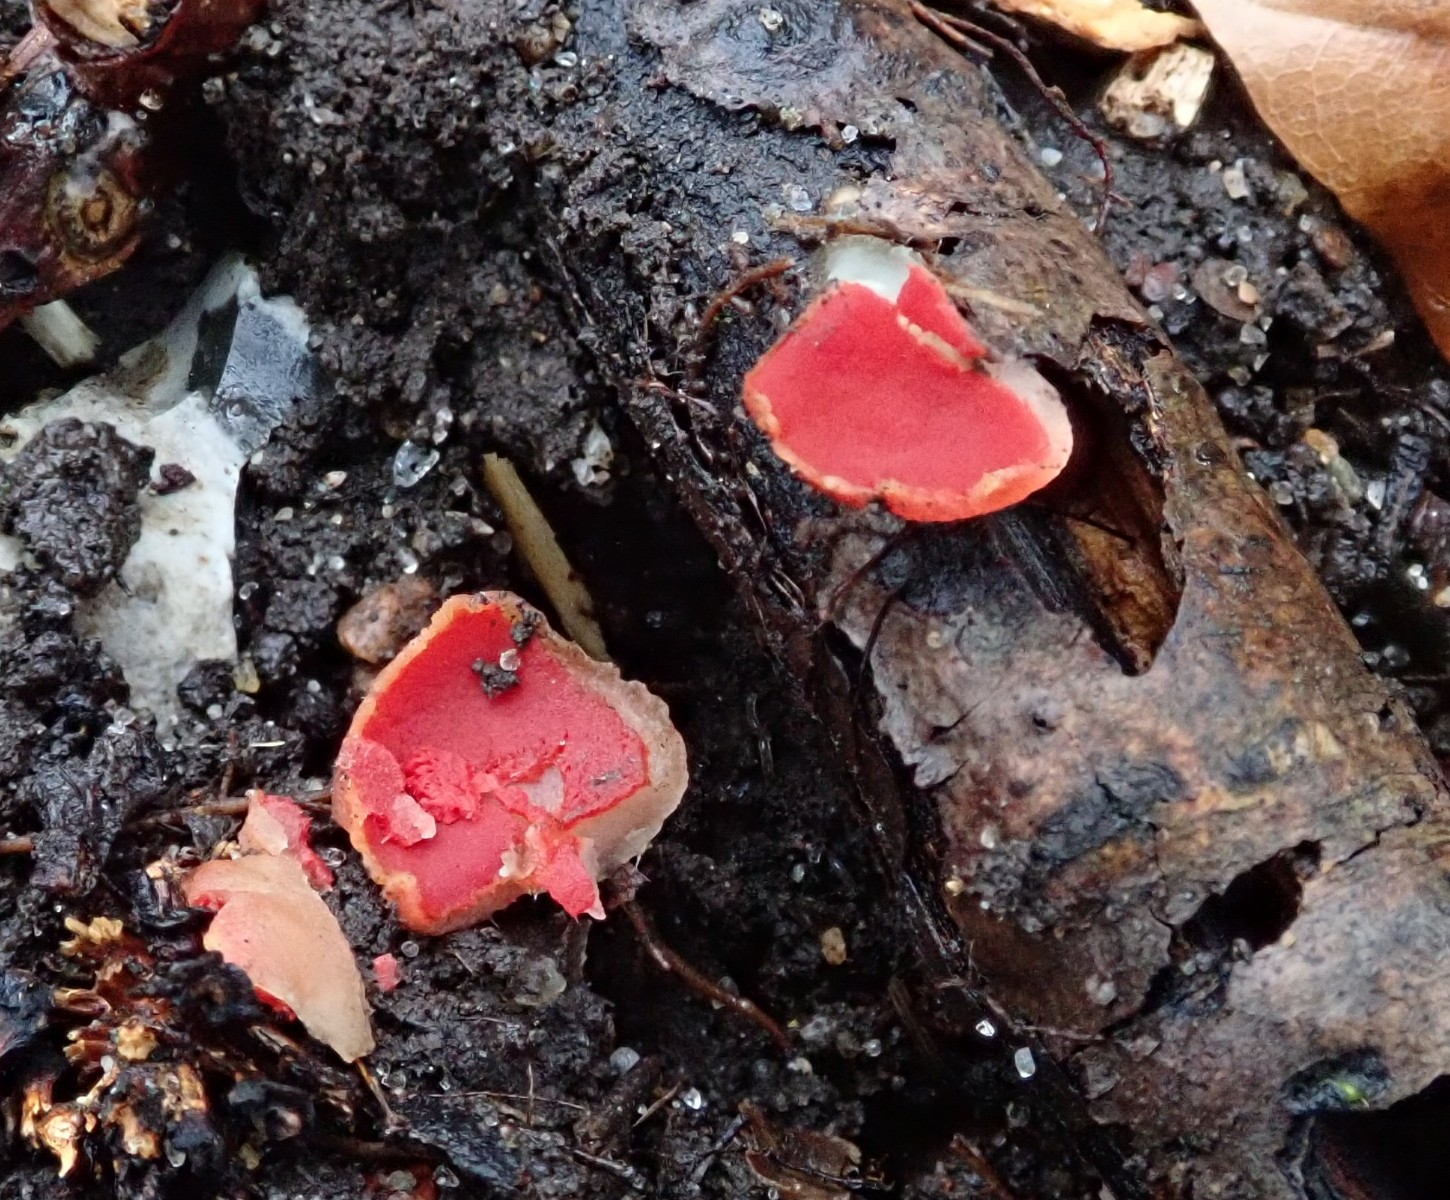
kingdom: Fungi
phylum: Ascomycota
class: Pezizomycetes
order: Pezizales
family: Sarcoscyphaceae
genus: Sarcoscypha
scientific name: Sarcoscypha
